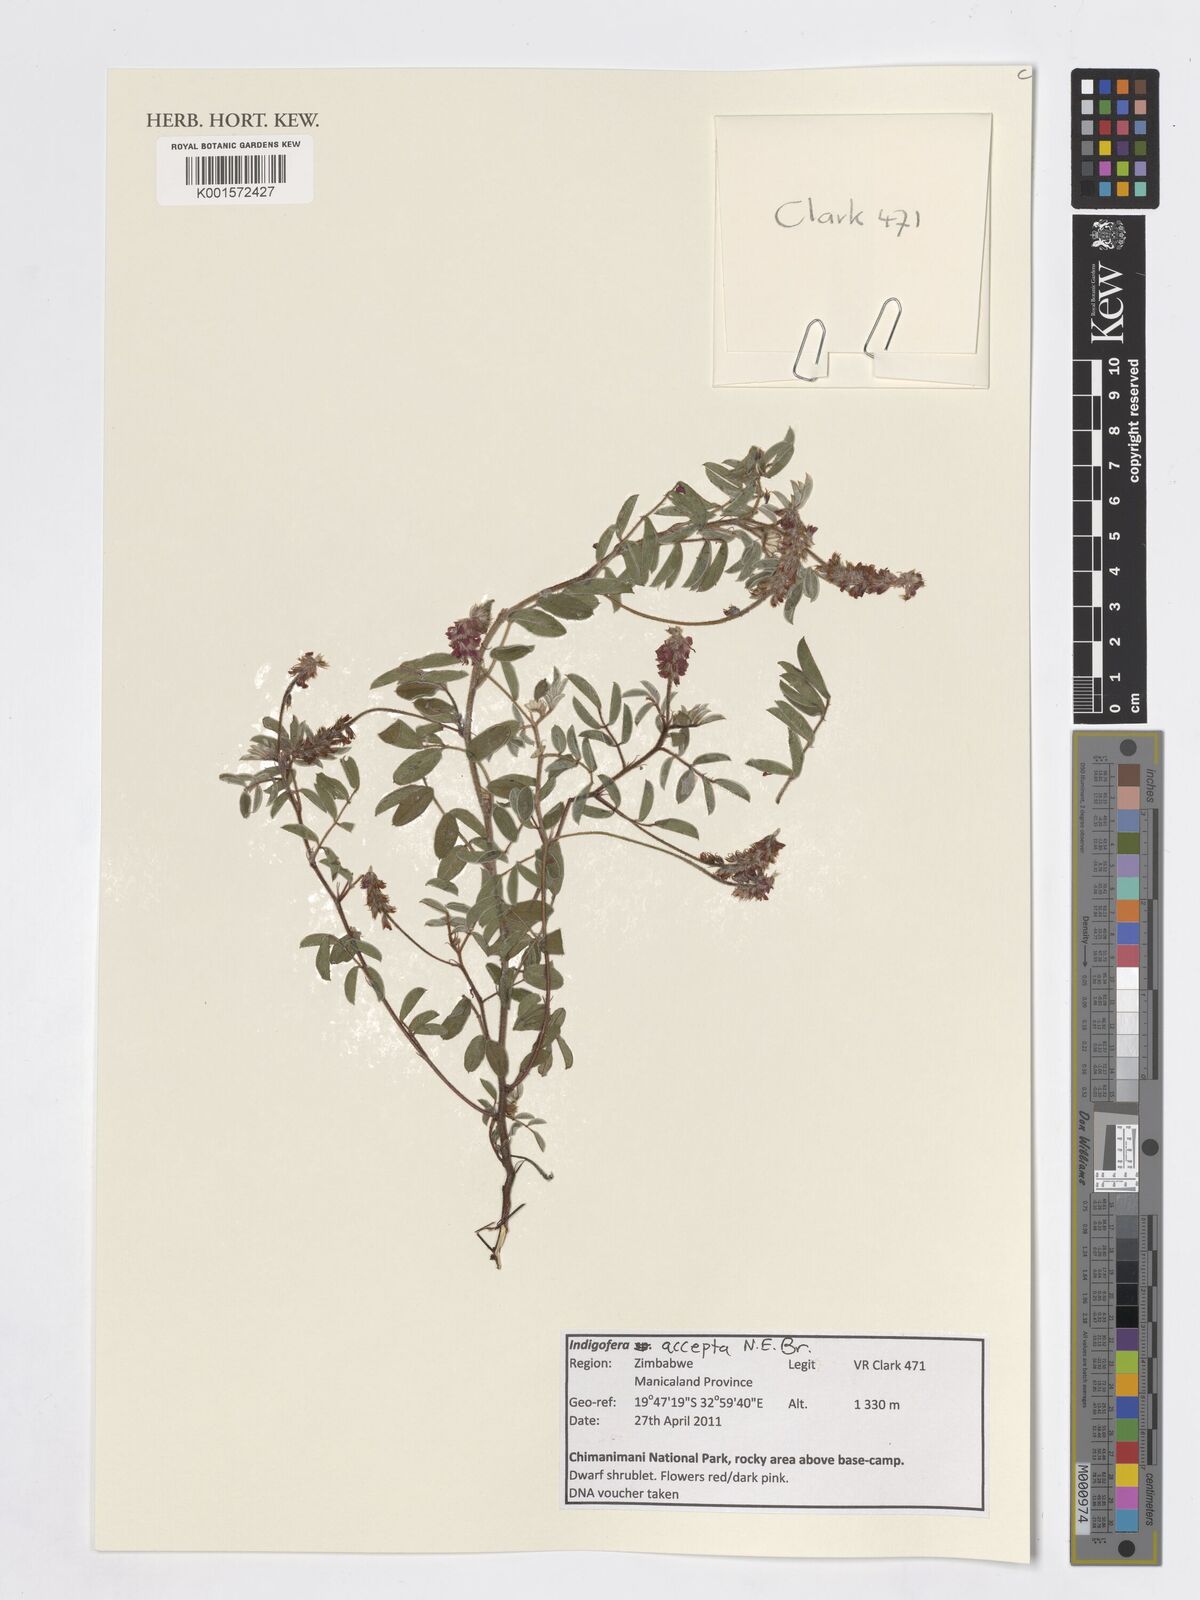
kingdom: Plantae
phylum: Tracheophyta
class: Magnoliopsida
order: Fabales
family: Fabaceae
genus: Indigofera
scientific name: Indigofera setiflora
